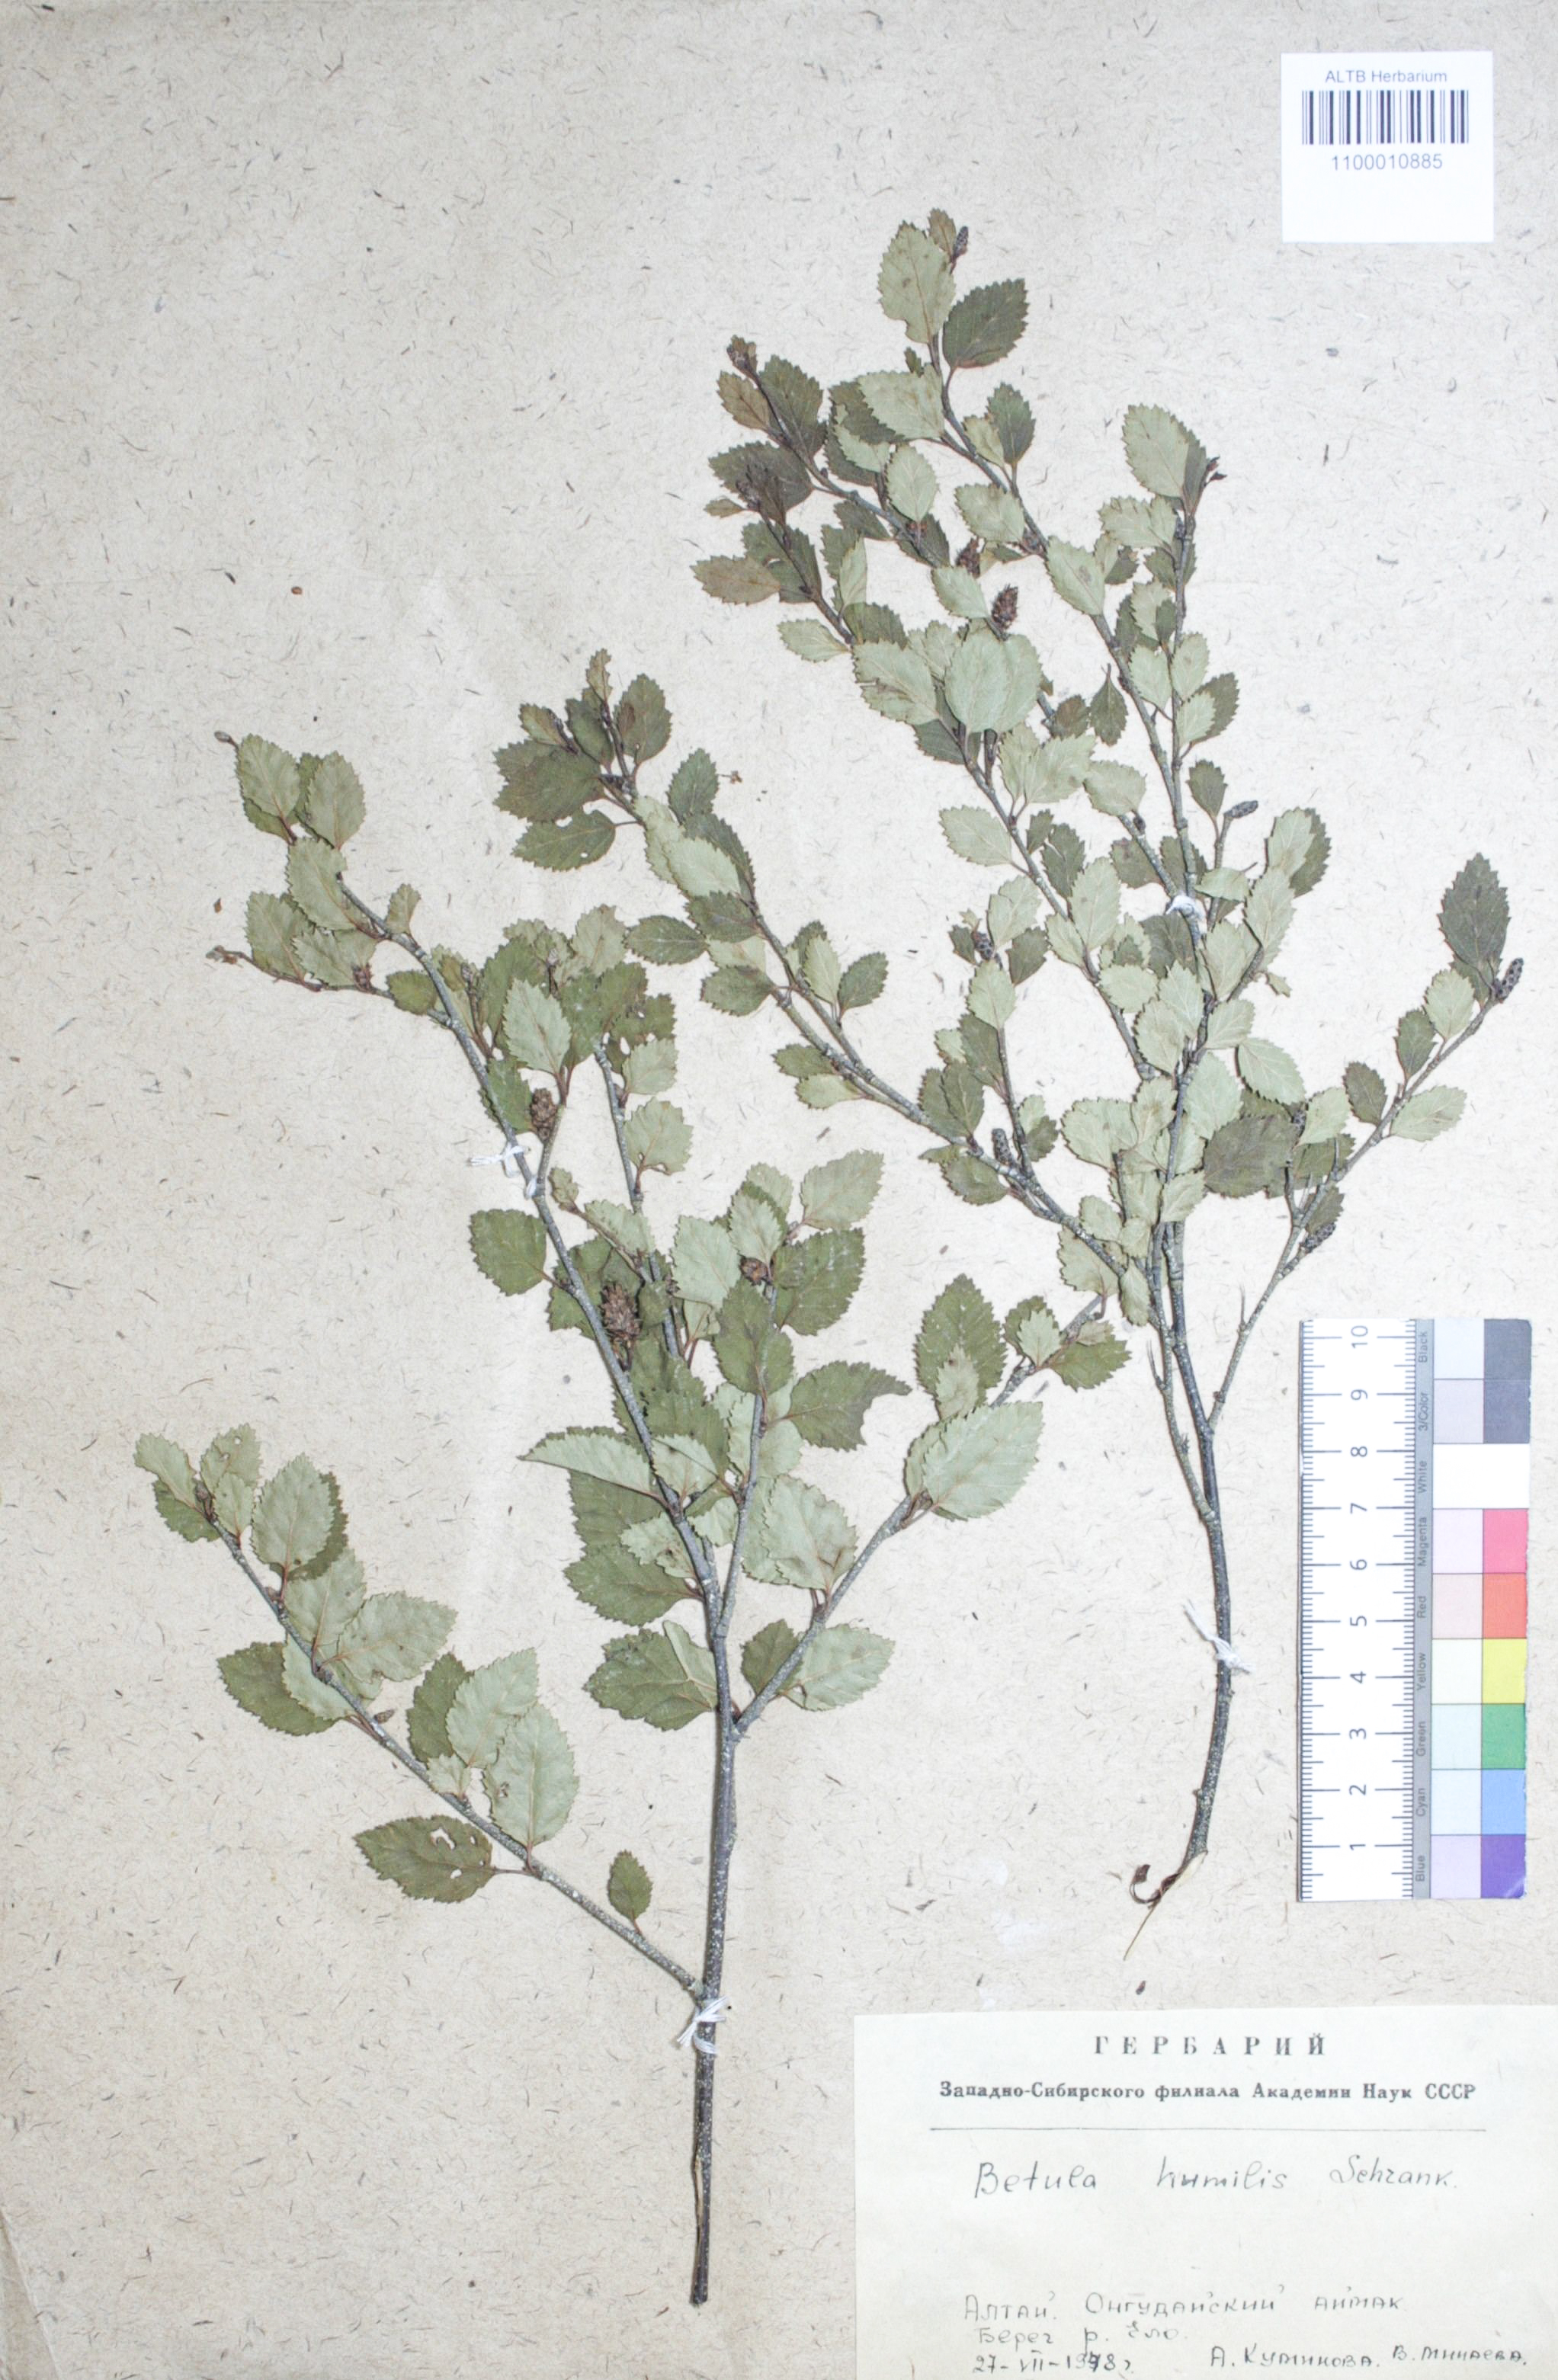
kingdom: Plantae
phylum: Tracheophyta
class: Magnoliopsida
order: Fagales
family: Betulaceae
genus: Betula
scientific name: Betula humilis
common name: Shrubby birch
